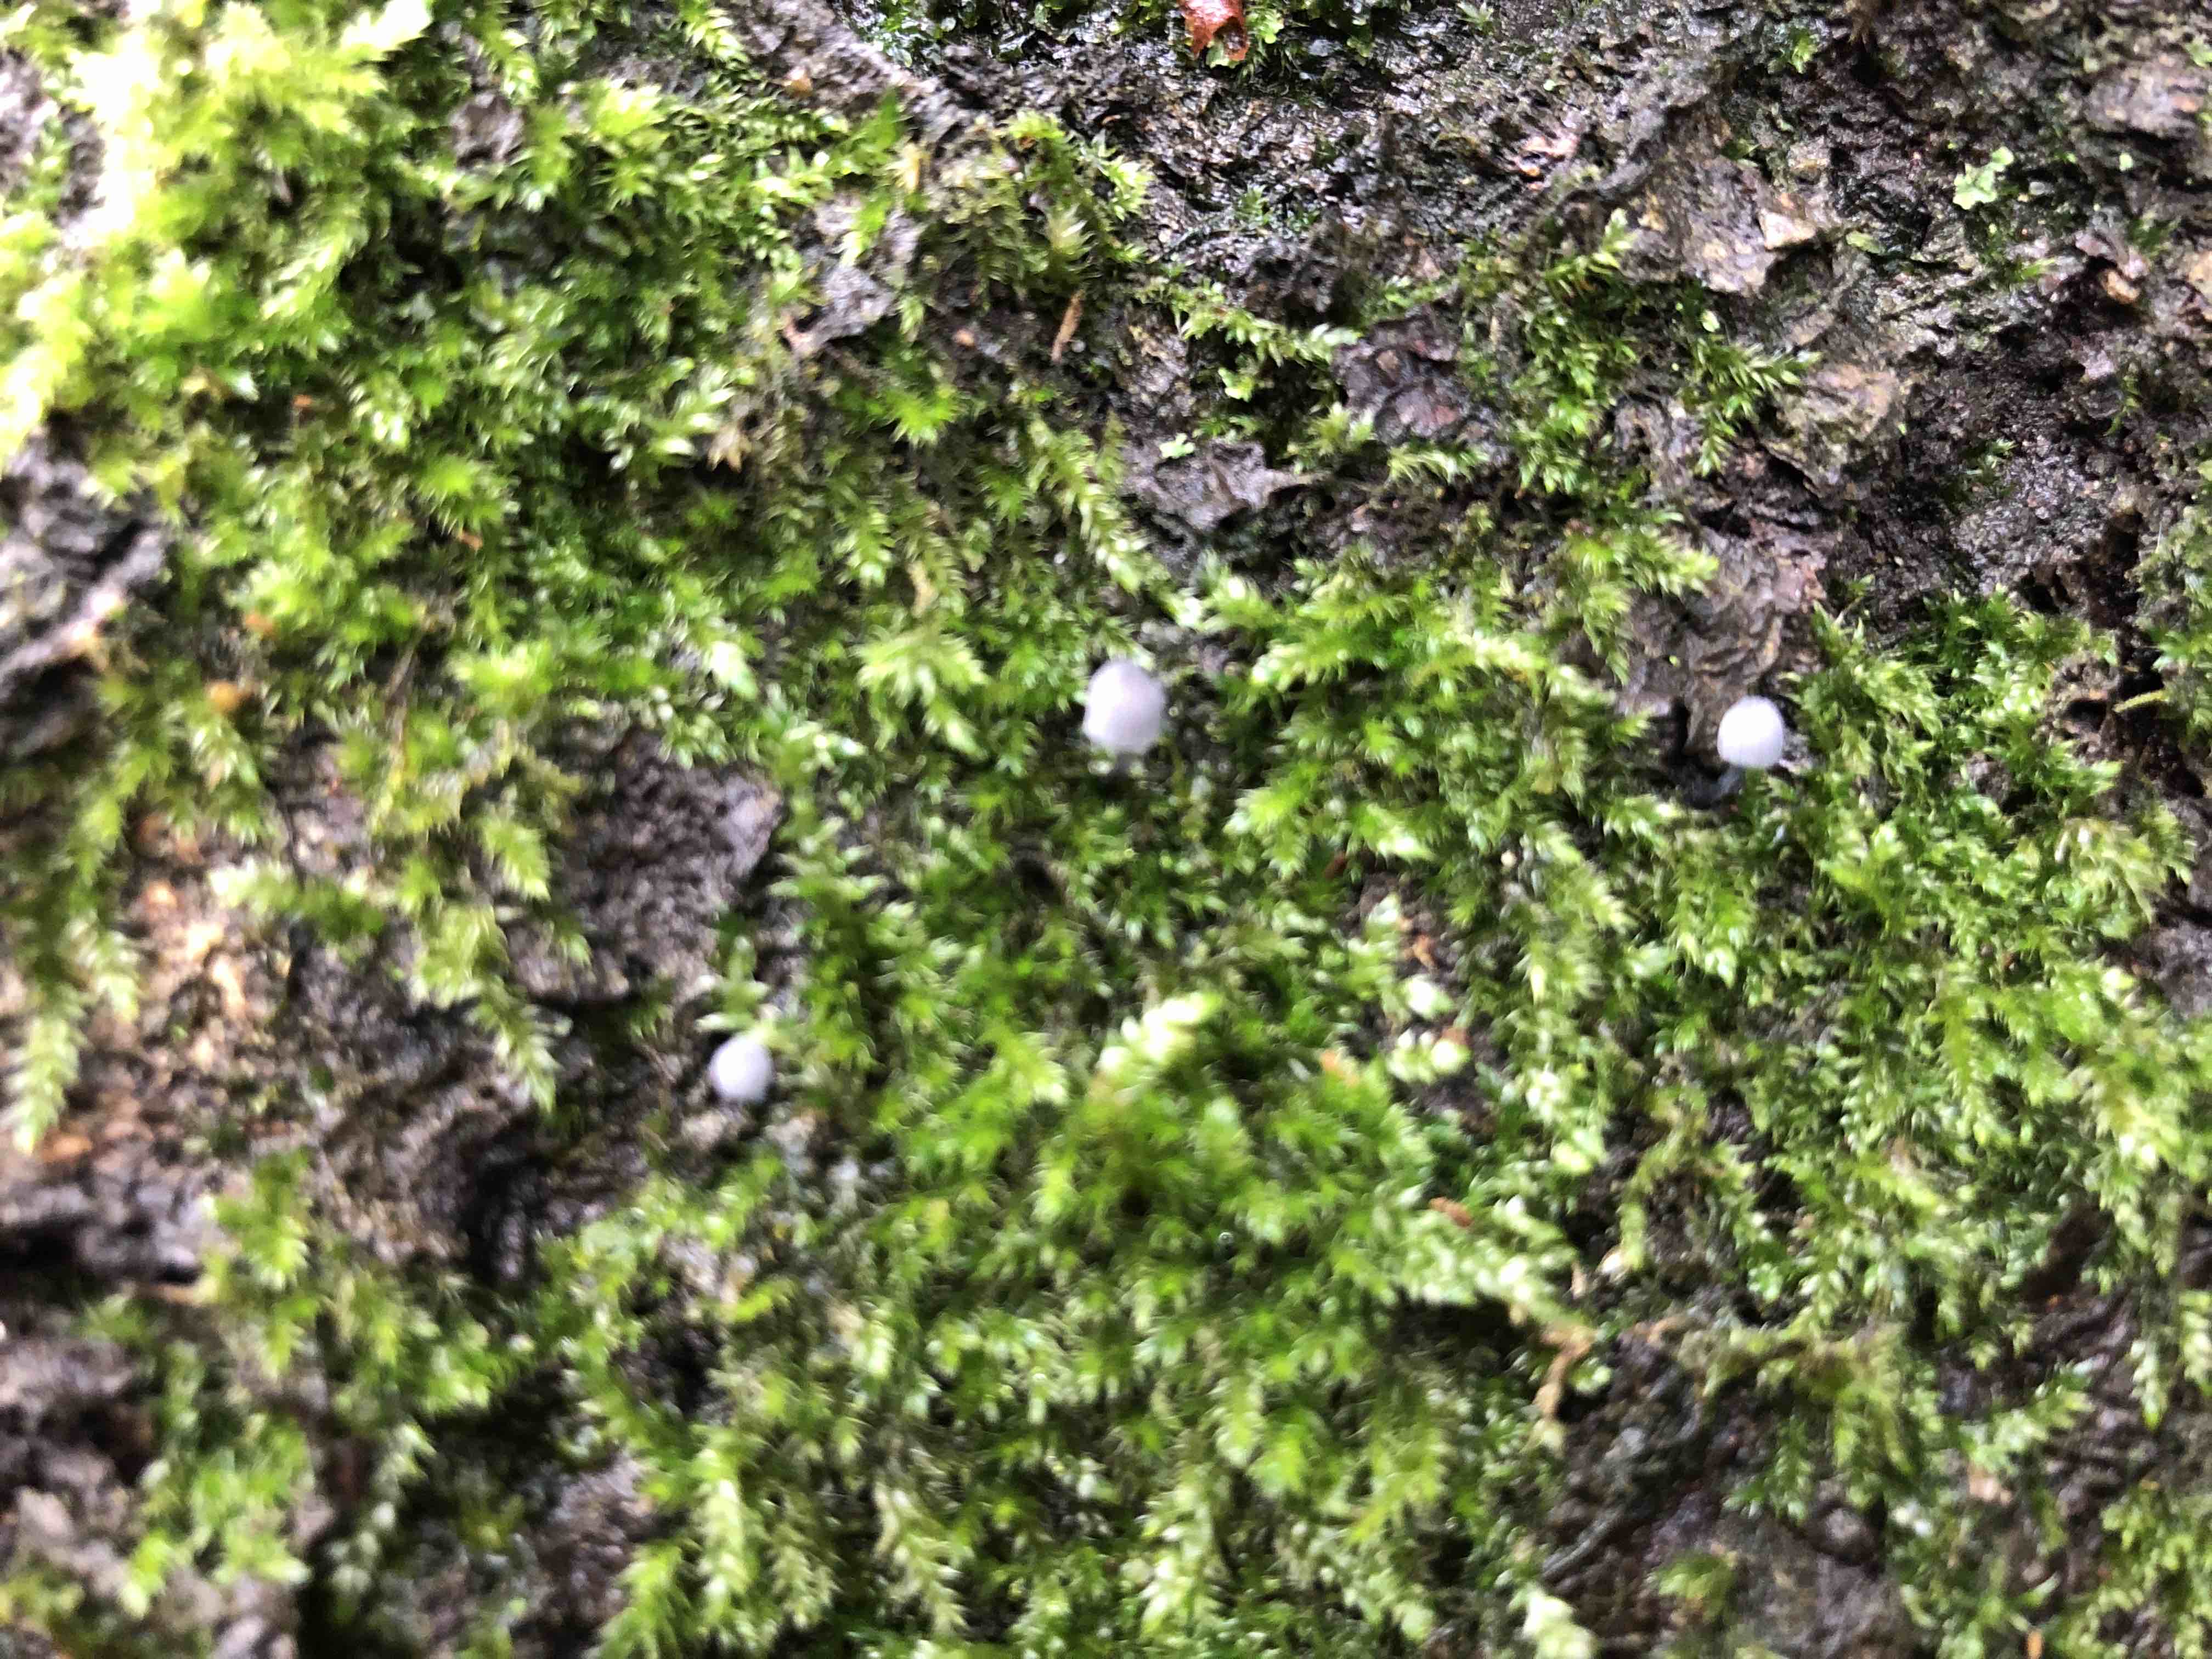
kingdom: Fungi
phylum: Basidiomycota
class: Agaricomycetes
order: Agaricales
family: Mycenaceae
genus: Mycena
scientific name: Mycena pseudocorticola
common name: gråblå bark-huesvamp
